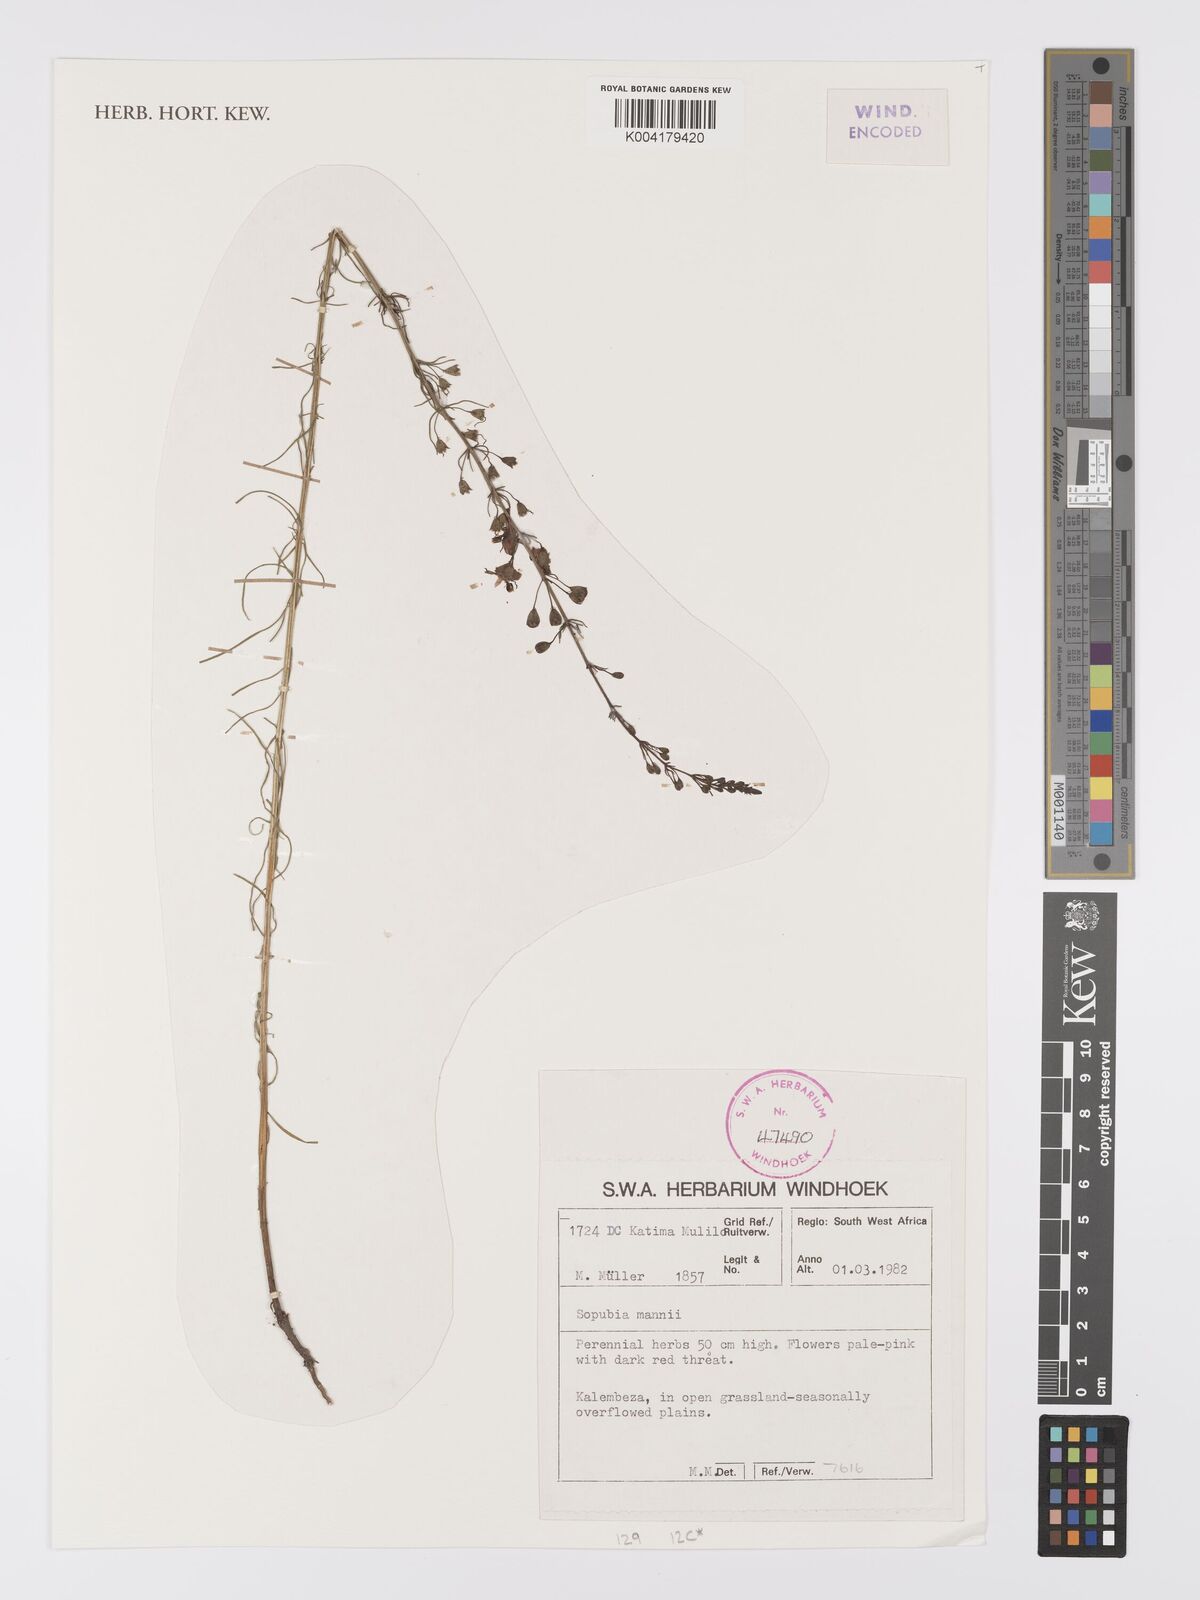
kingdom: Plantae
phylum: Tracheophyta
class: Magnoliopsida
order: Lamiales
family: Orobanchaceae
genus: Sopubia
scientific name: Sopubia mannii
